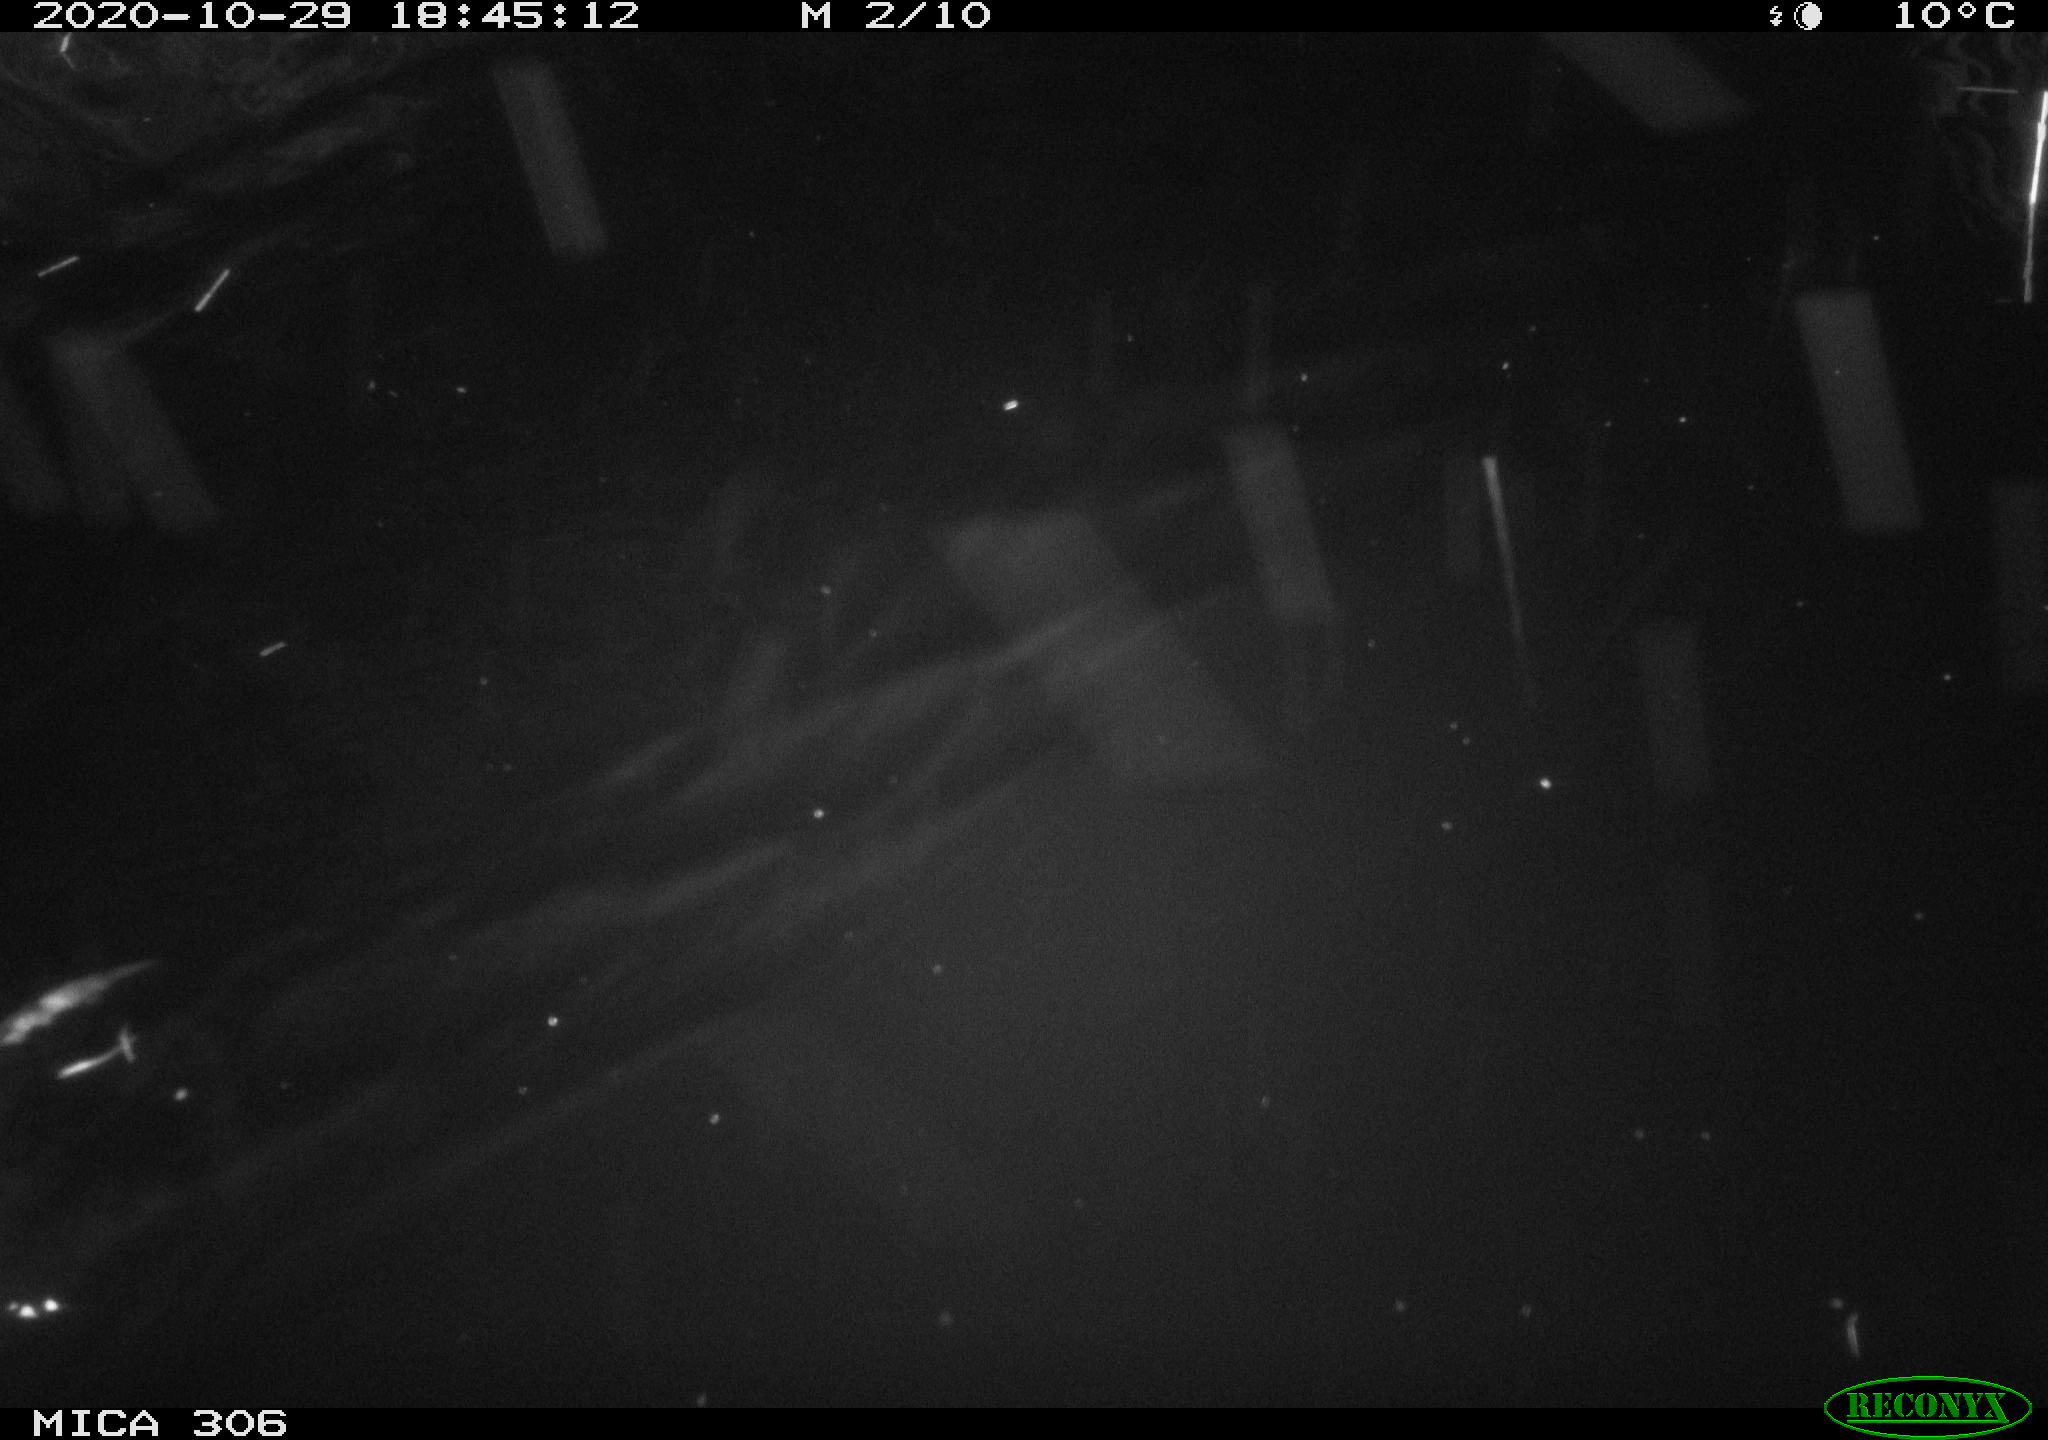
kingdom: Animalia
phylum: Chordata
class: Mammalia
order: Rodentia
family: Cricetidae
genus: Ondatra
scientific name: Ondatra zibethicus
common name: Muskrat
